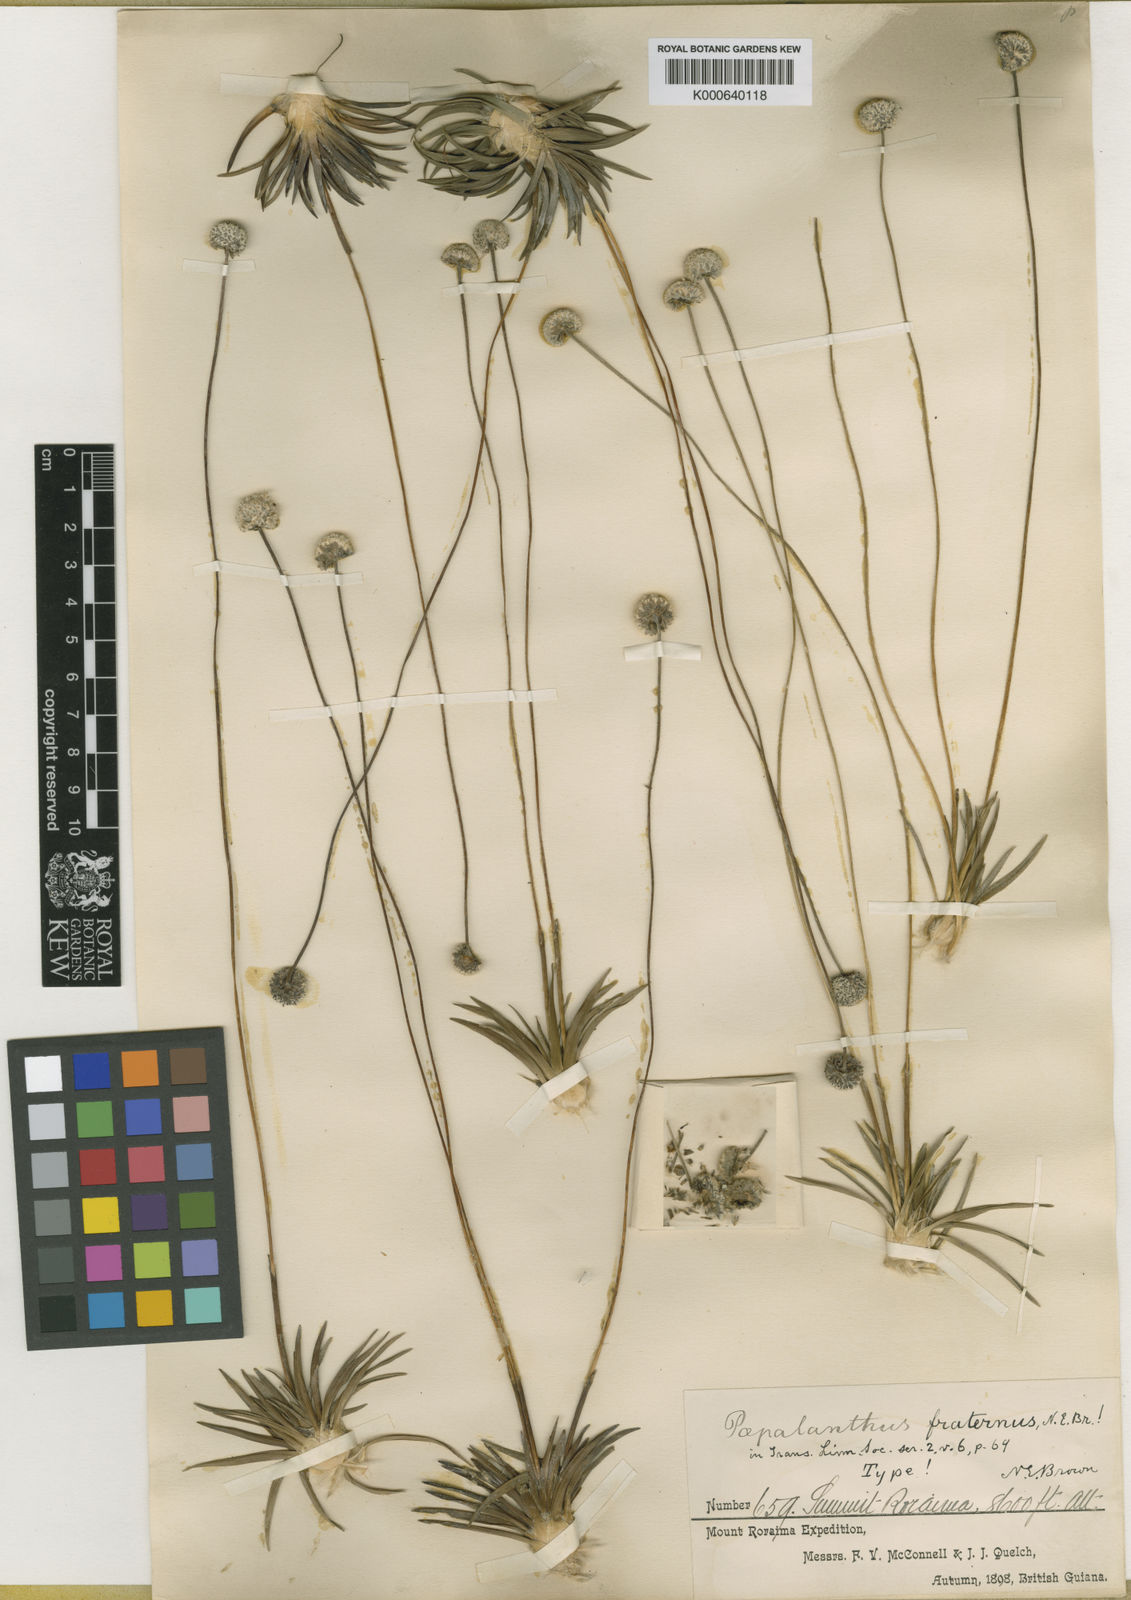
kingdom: Plantae
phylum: Tracheophyta
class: Liliopsida
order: Poales
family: Eriocaulaceae
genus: Paepalanthus
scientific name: Paepalanthus fraternus
